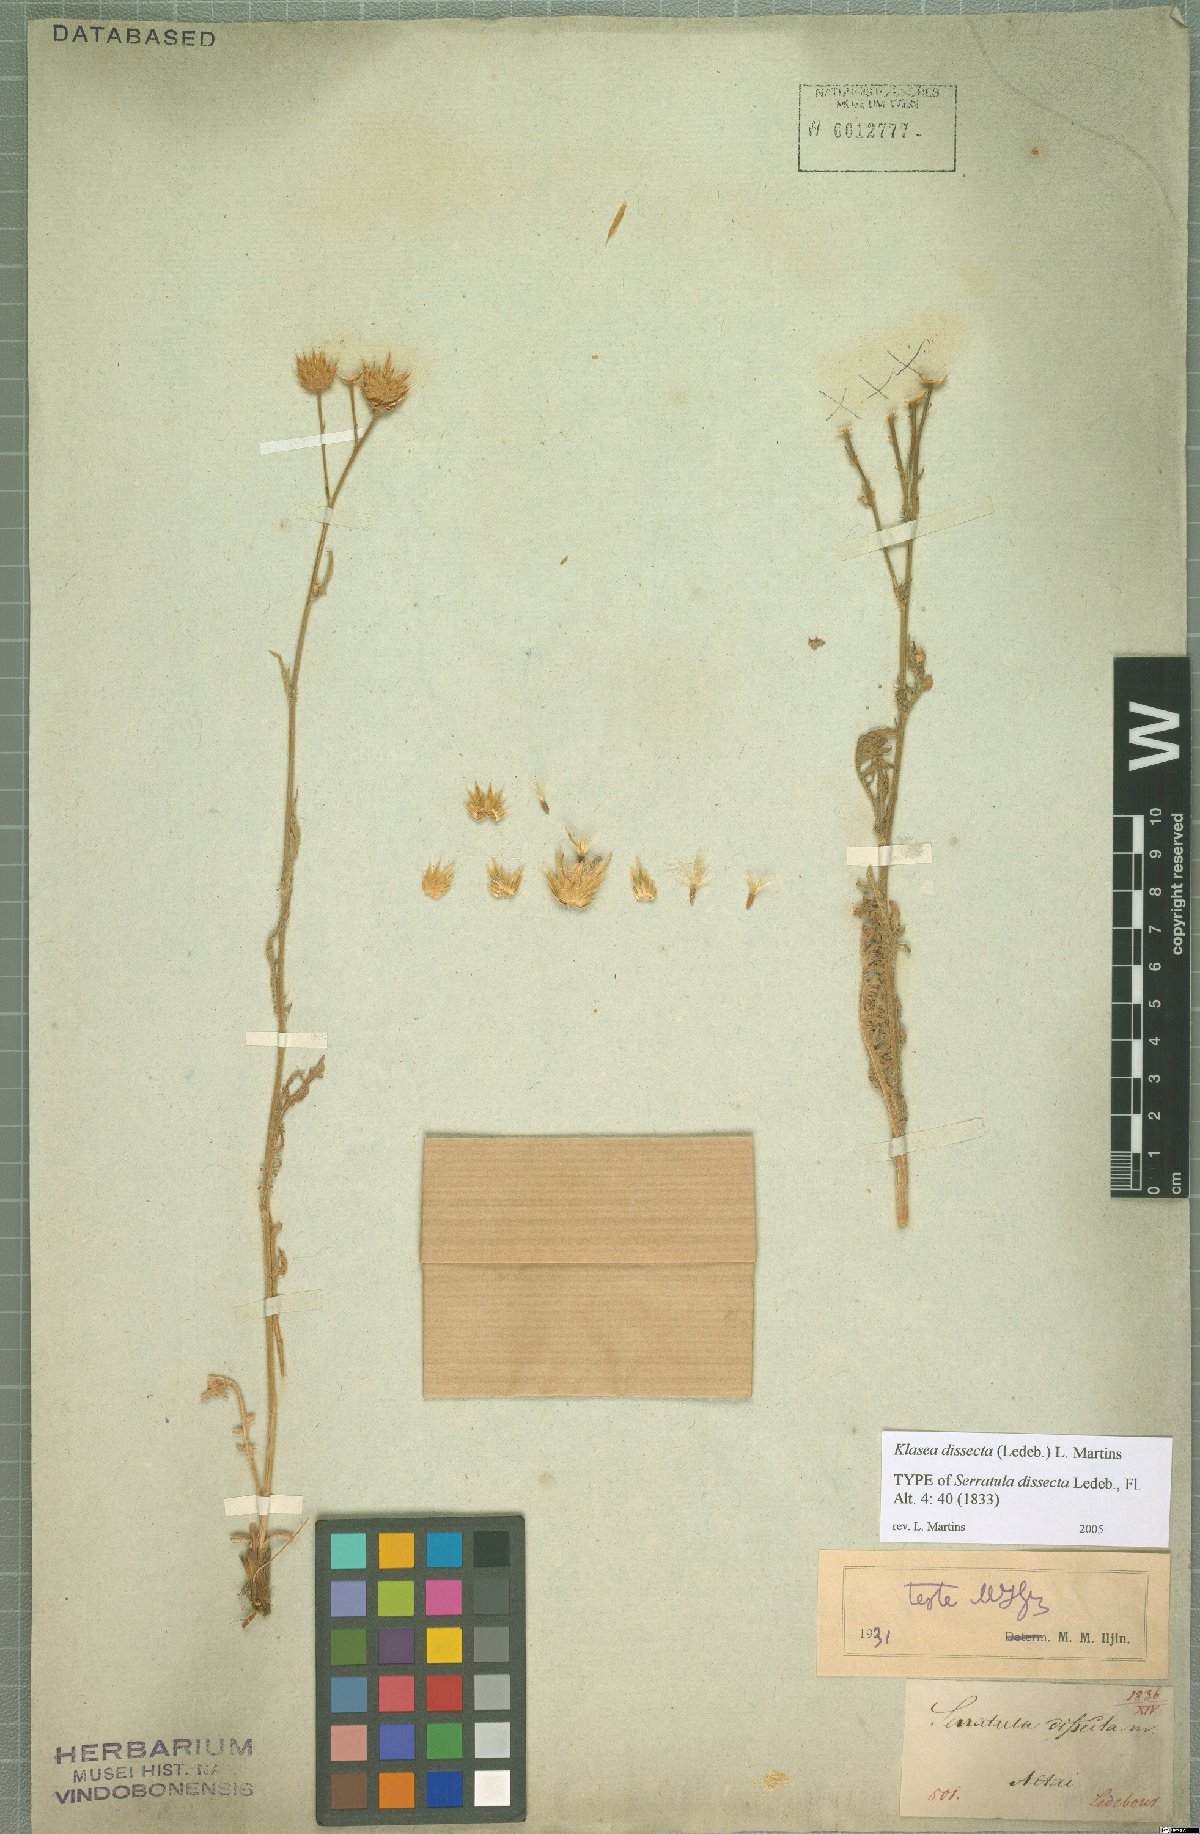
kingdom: Plantae
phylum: Tracheophyta
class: Magnoliopsida
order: Asterales
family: Asteraceae
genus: Klasea
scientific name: Klasea dissecta
